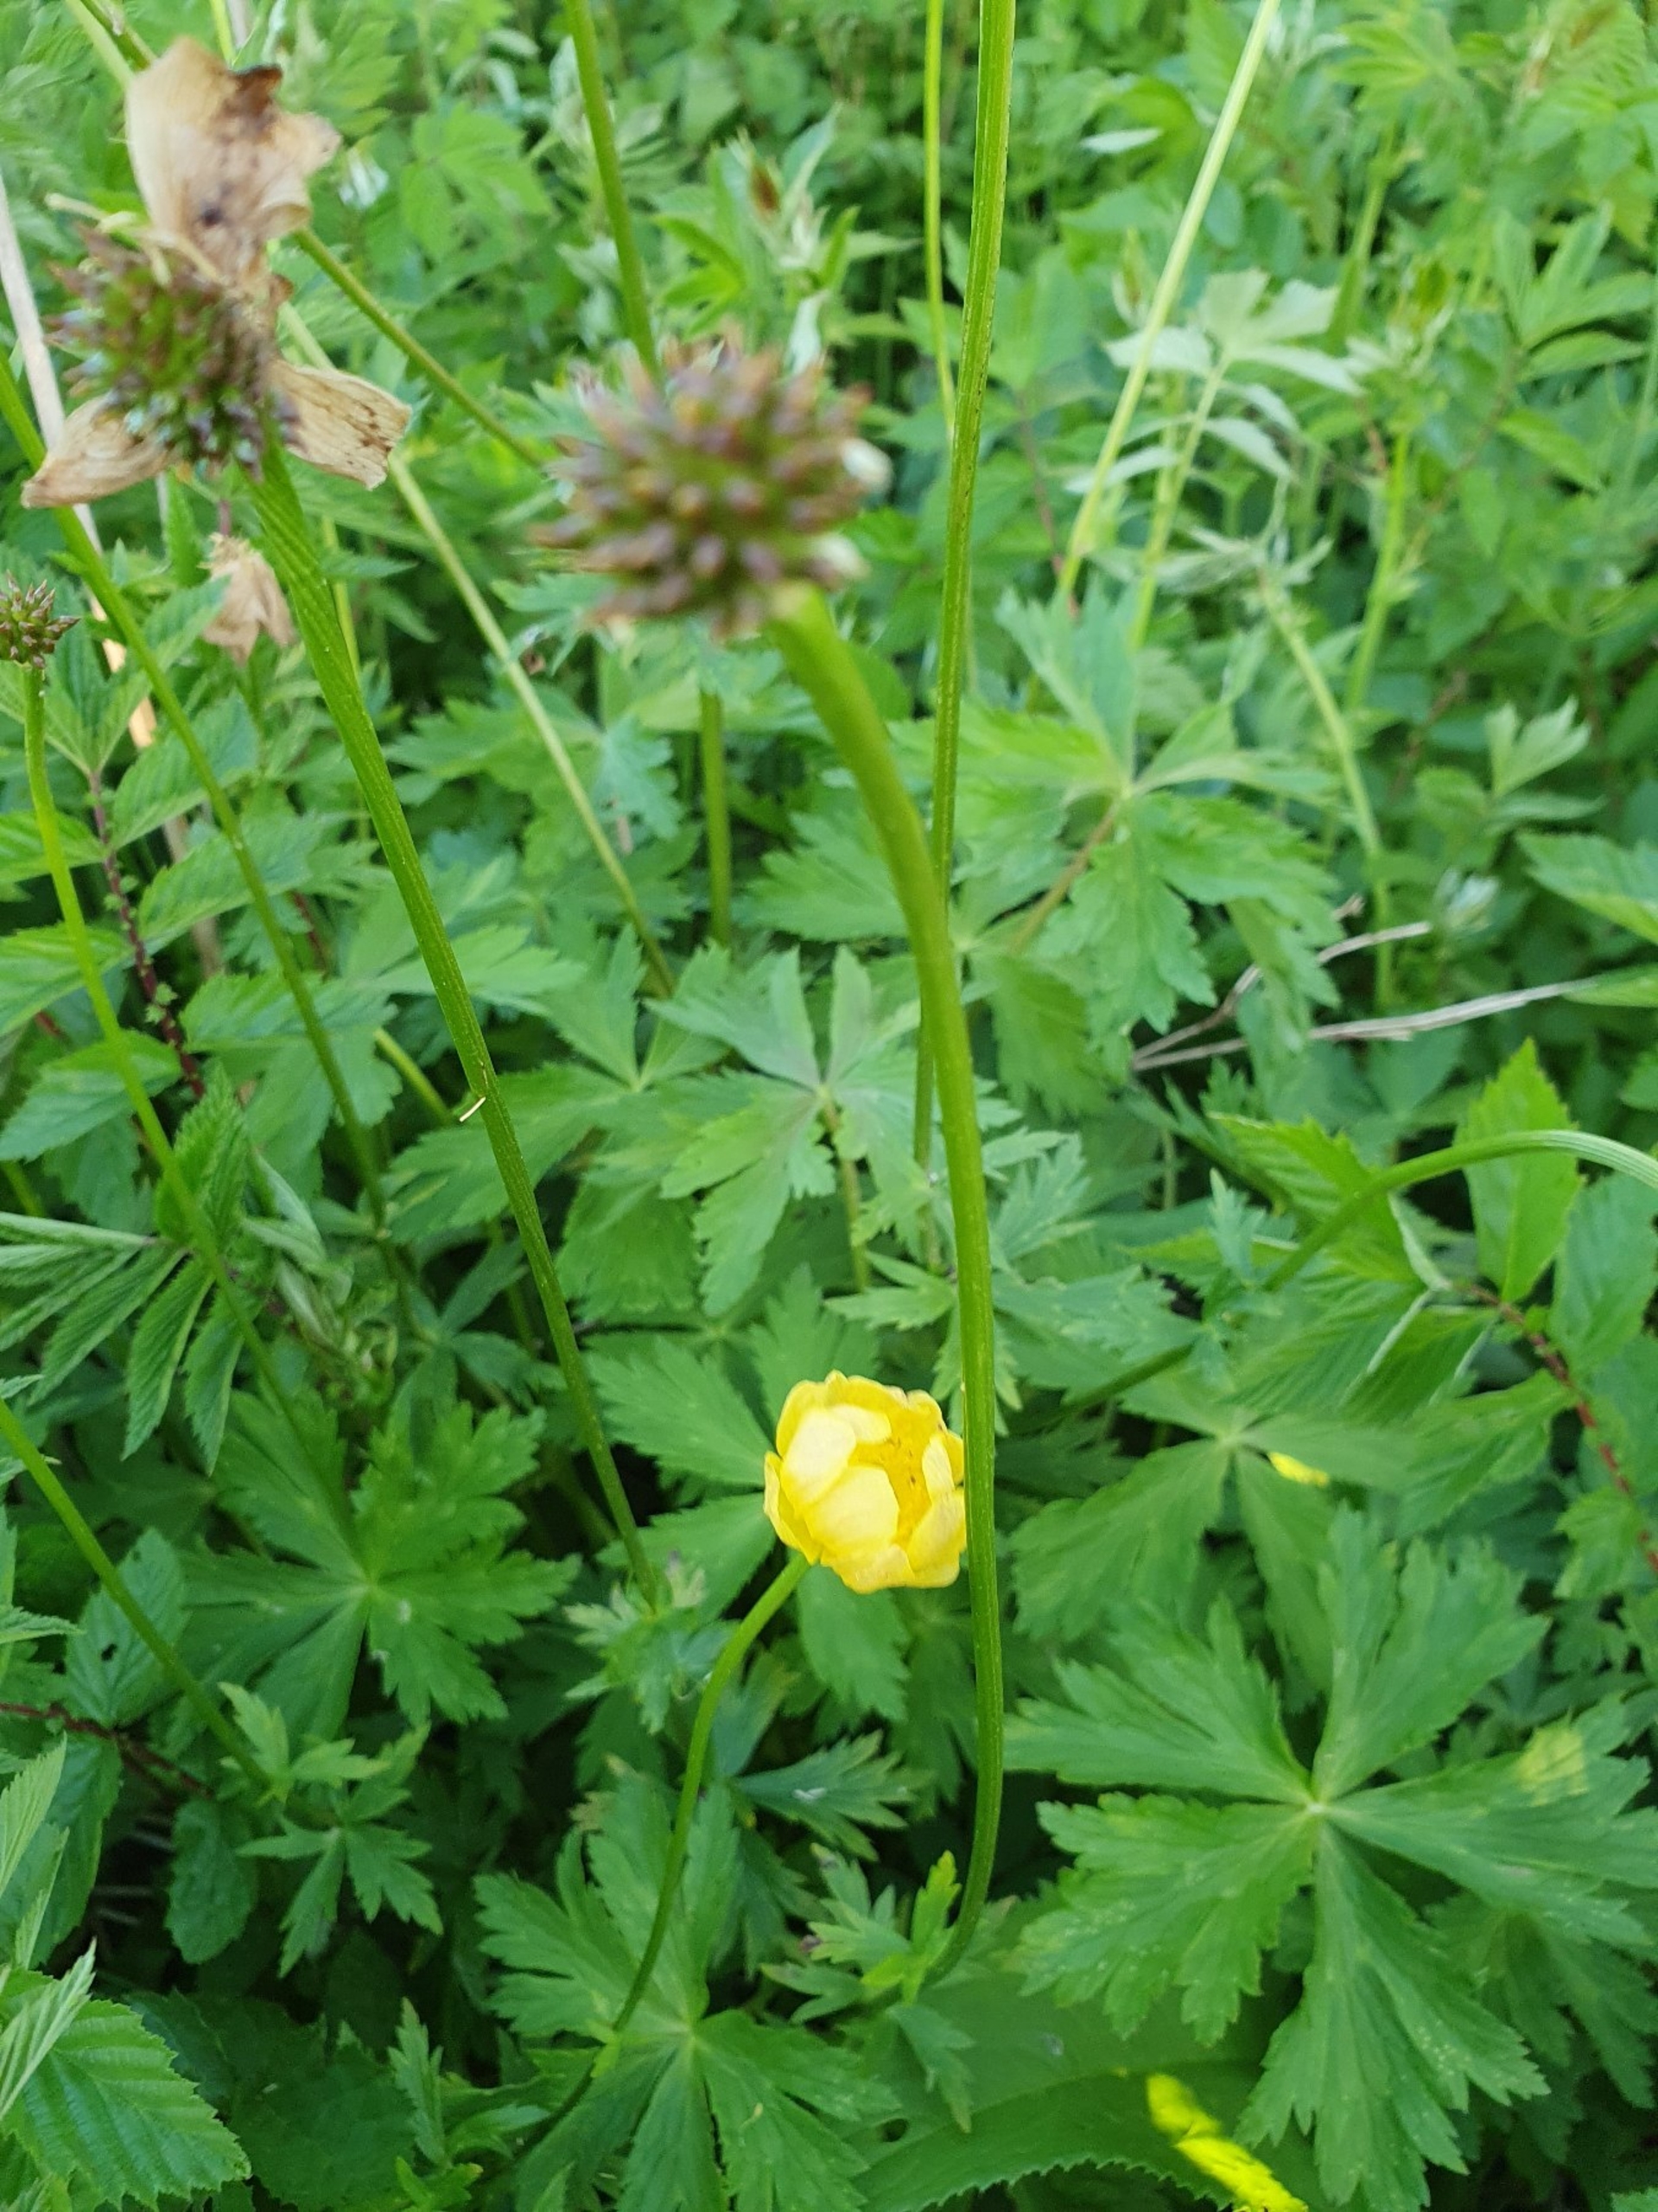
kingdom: Plantae
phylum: Tracheophyta
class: Magnoliopsida
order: Ranunculales
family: Ranunculaceae
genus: Trollius
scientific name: Trollius europaeus
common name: Engblomme
